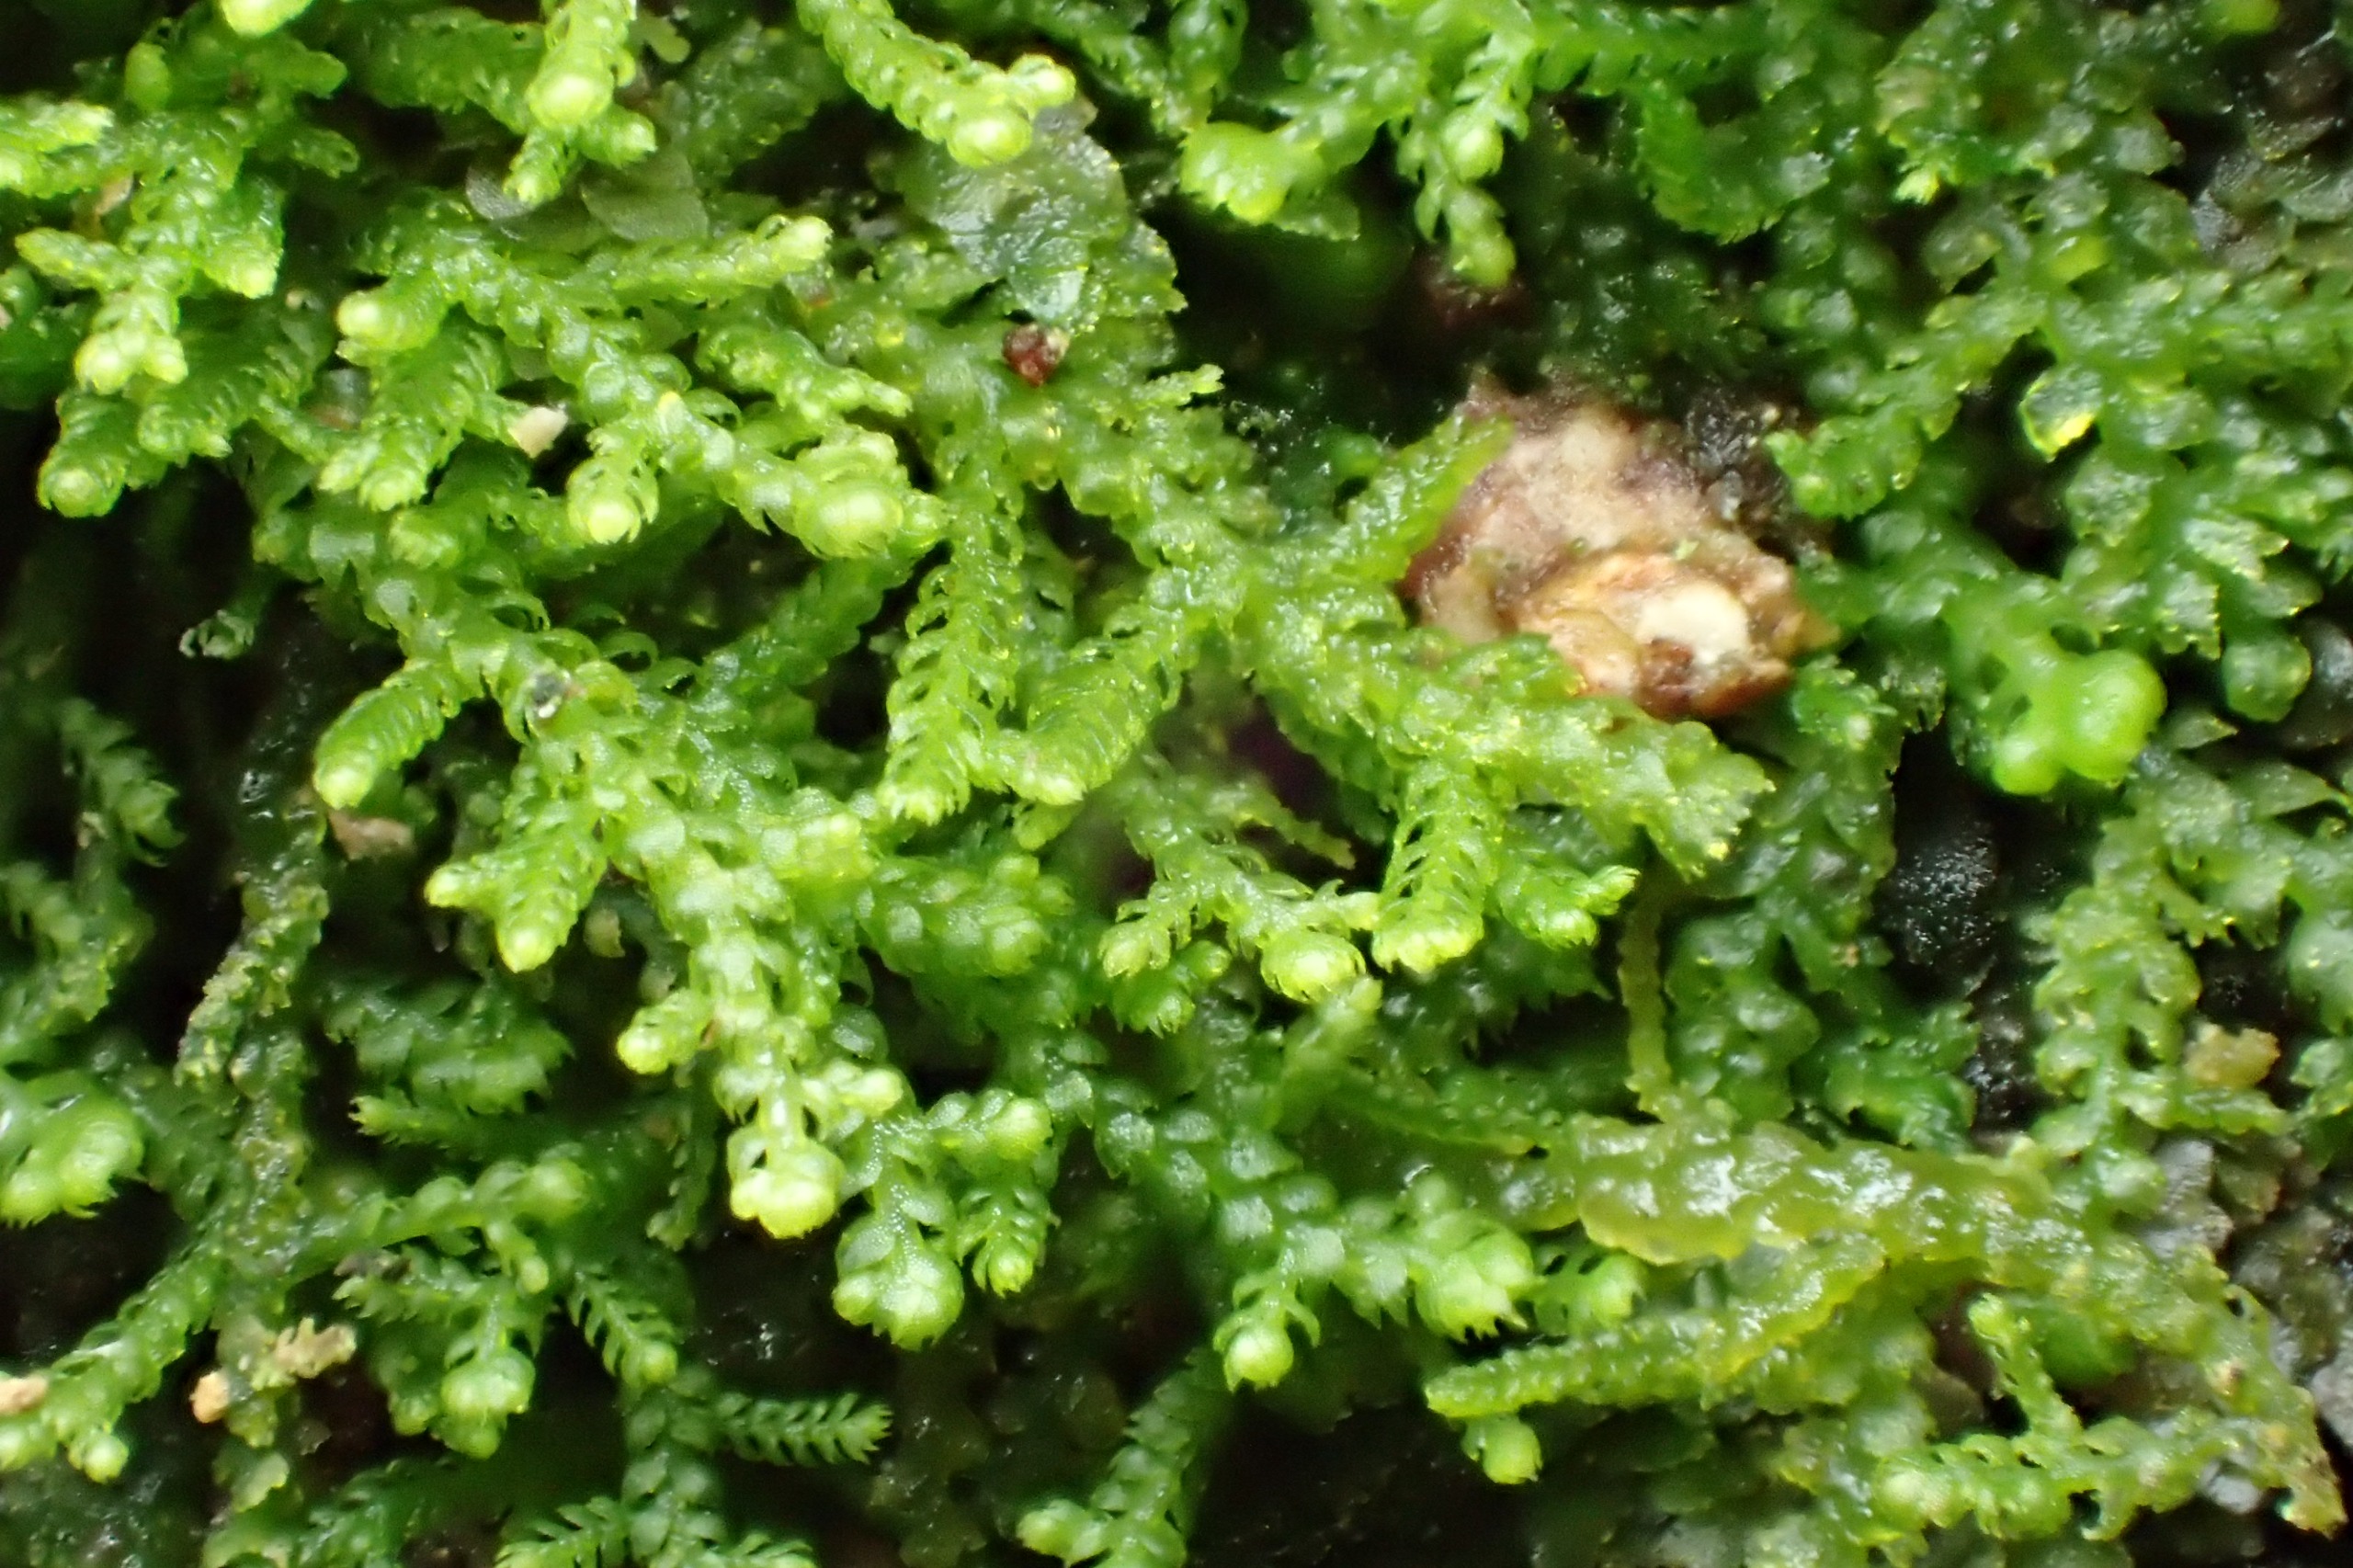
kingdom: Plantae
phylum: Marchantiophyta
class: Jungermanniopsida
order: Jungermanniales
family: Lepidoziaceae
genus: Lepidozia
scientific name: Lepidozia reptans
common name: Krybende fingermos
